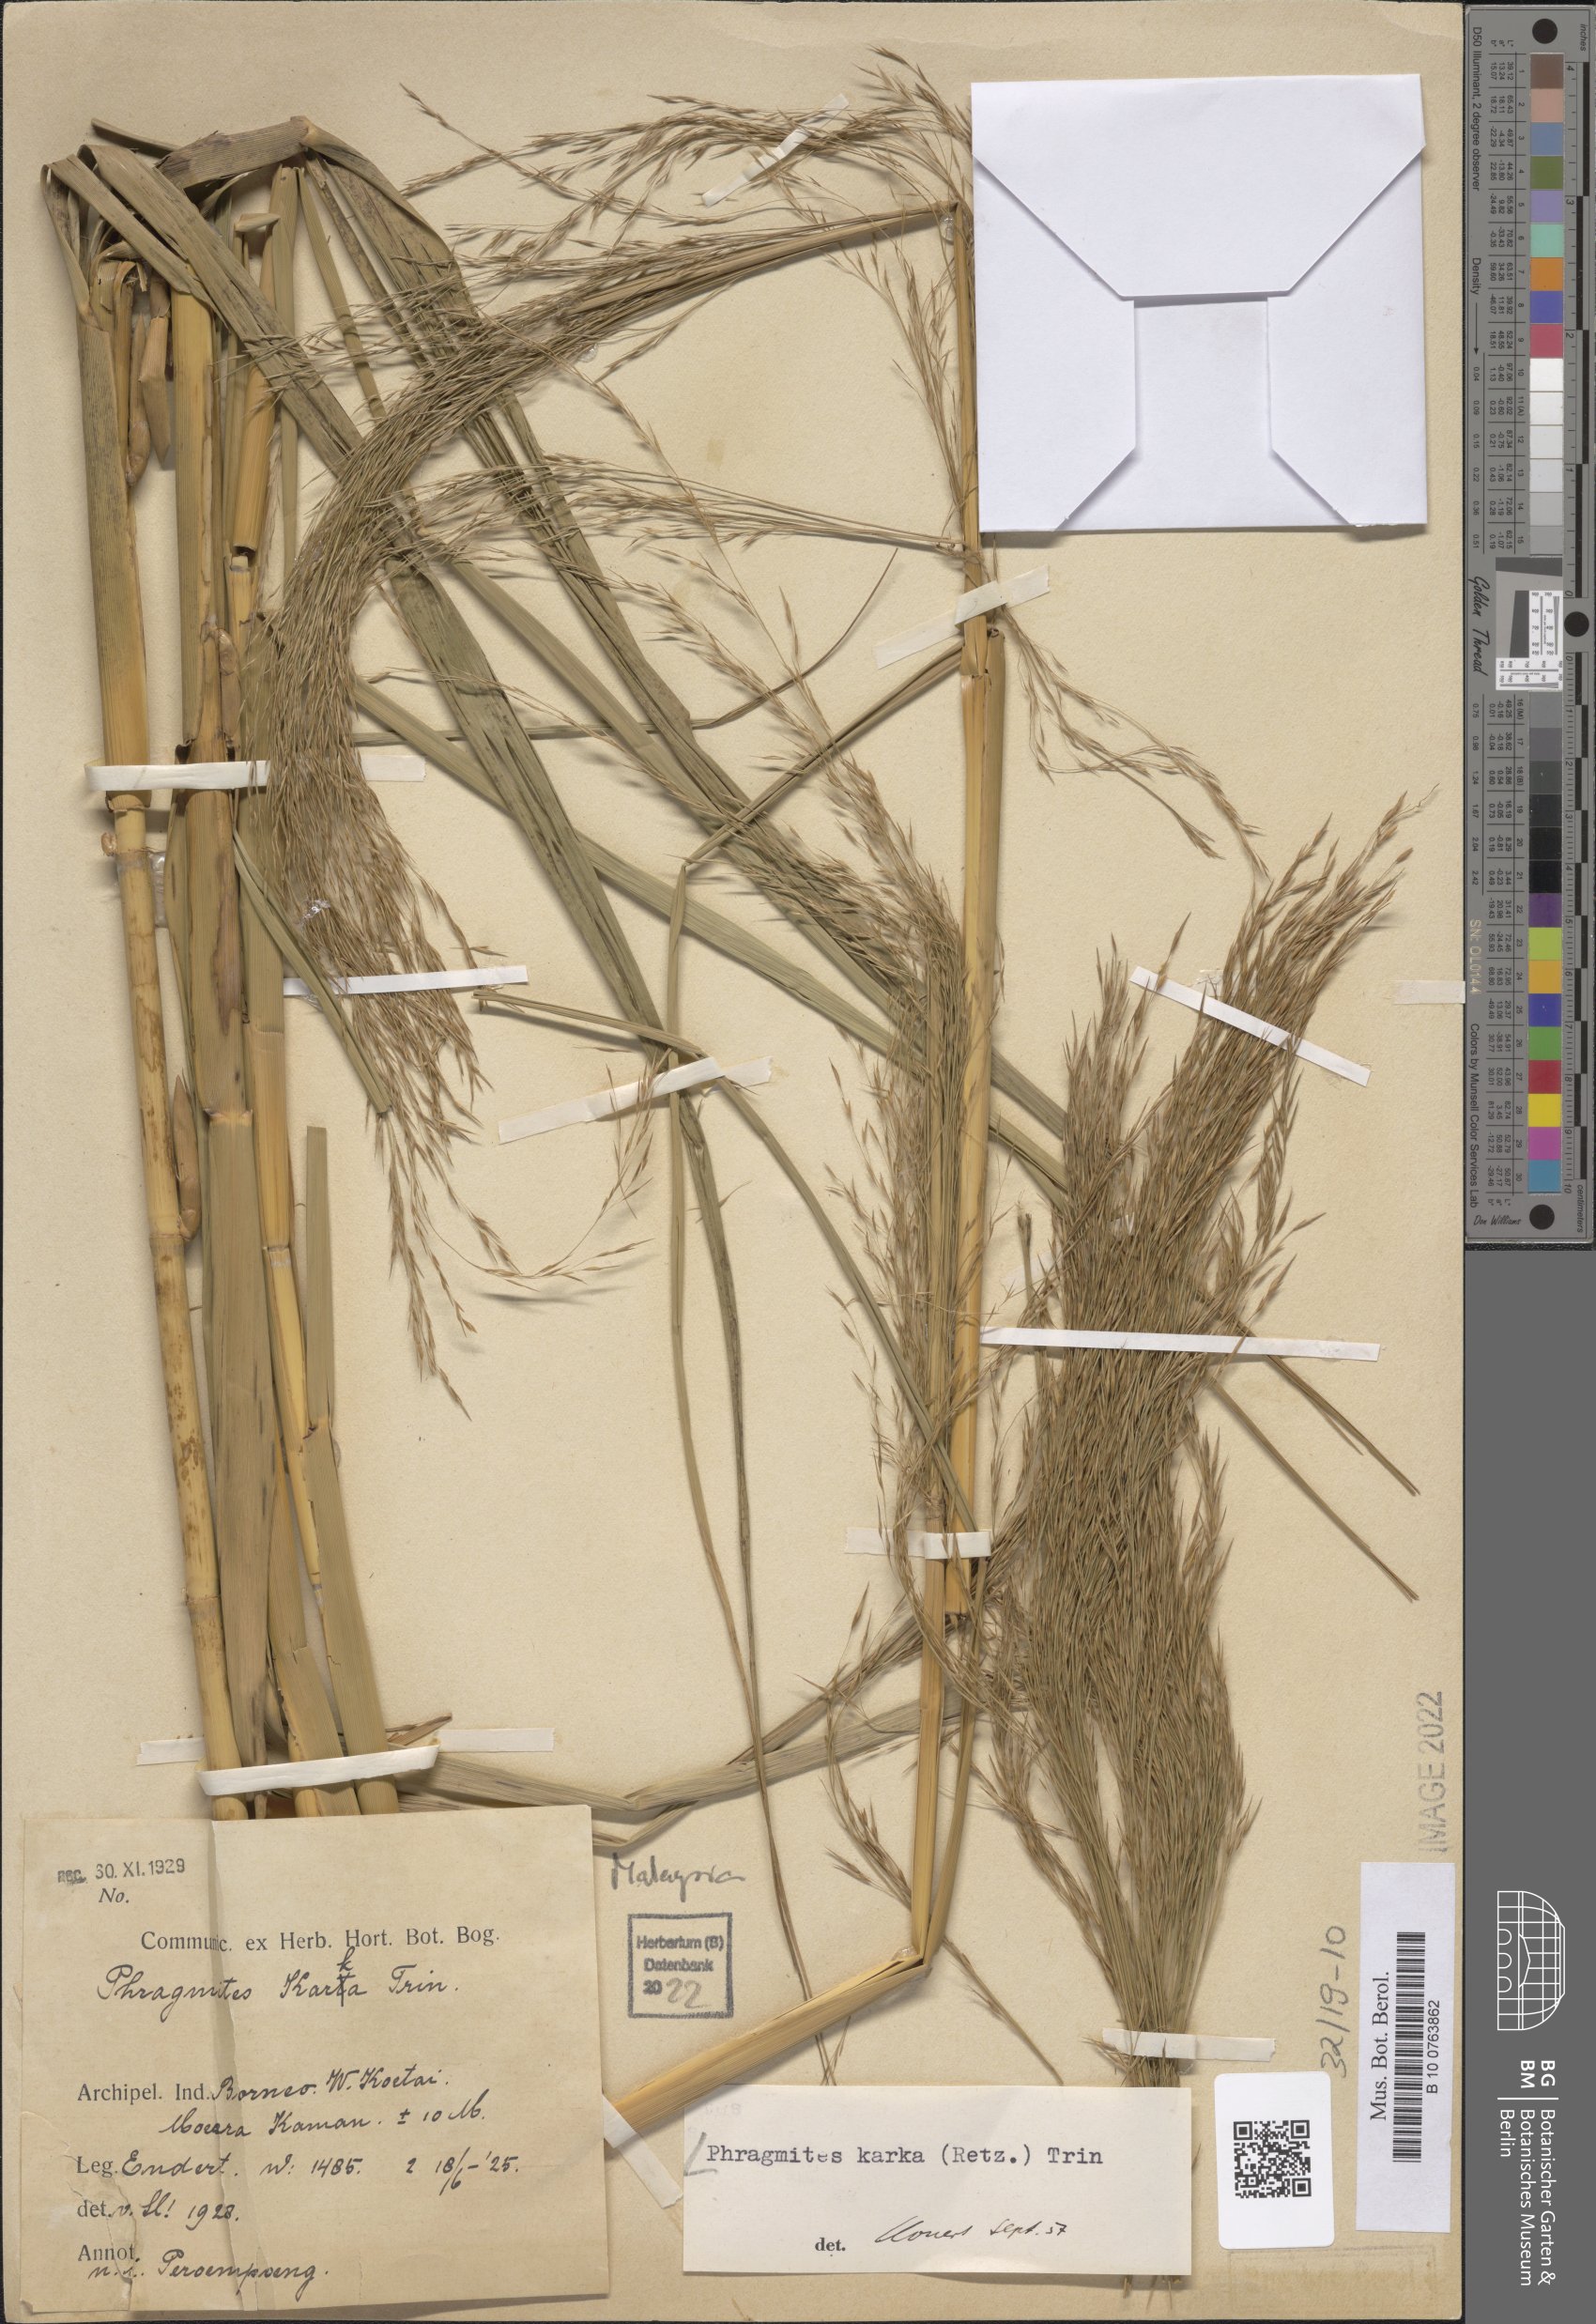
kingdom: Plantae
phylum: Tracheophyta
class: Liliopsida
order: Poales
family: Poaceae
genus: Phragmites
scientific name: Phragmites karka
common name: Tropical reed
